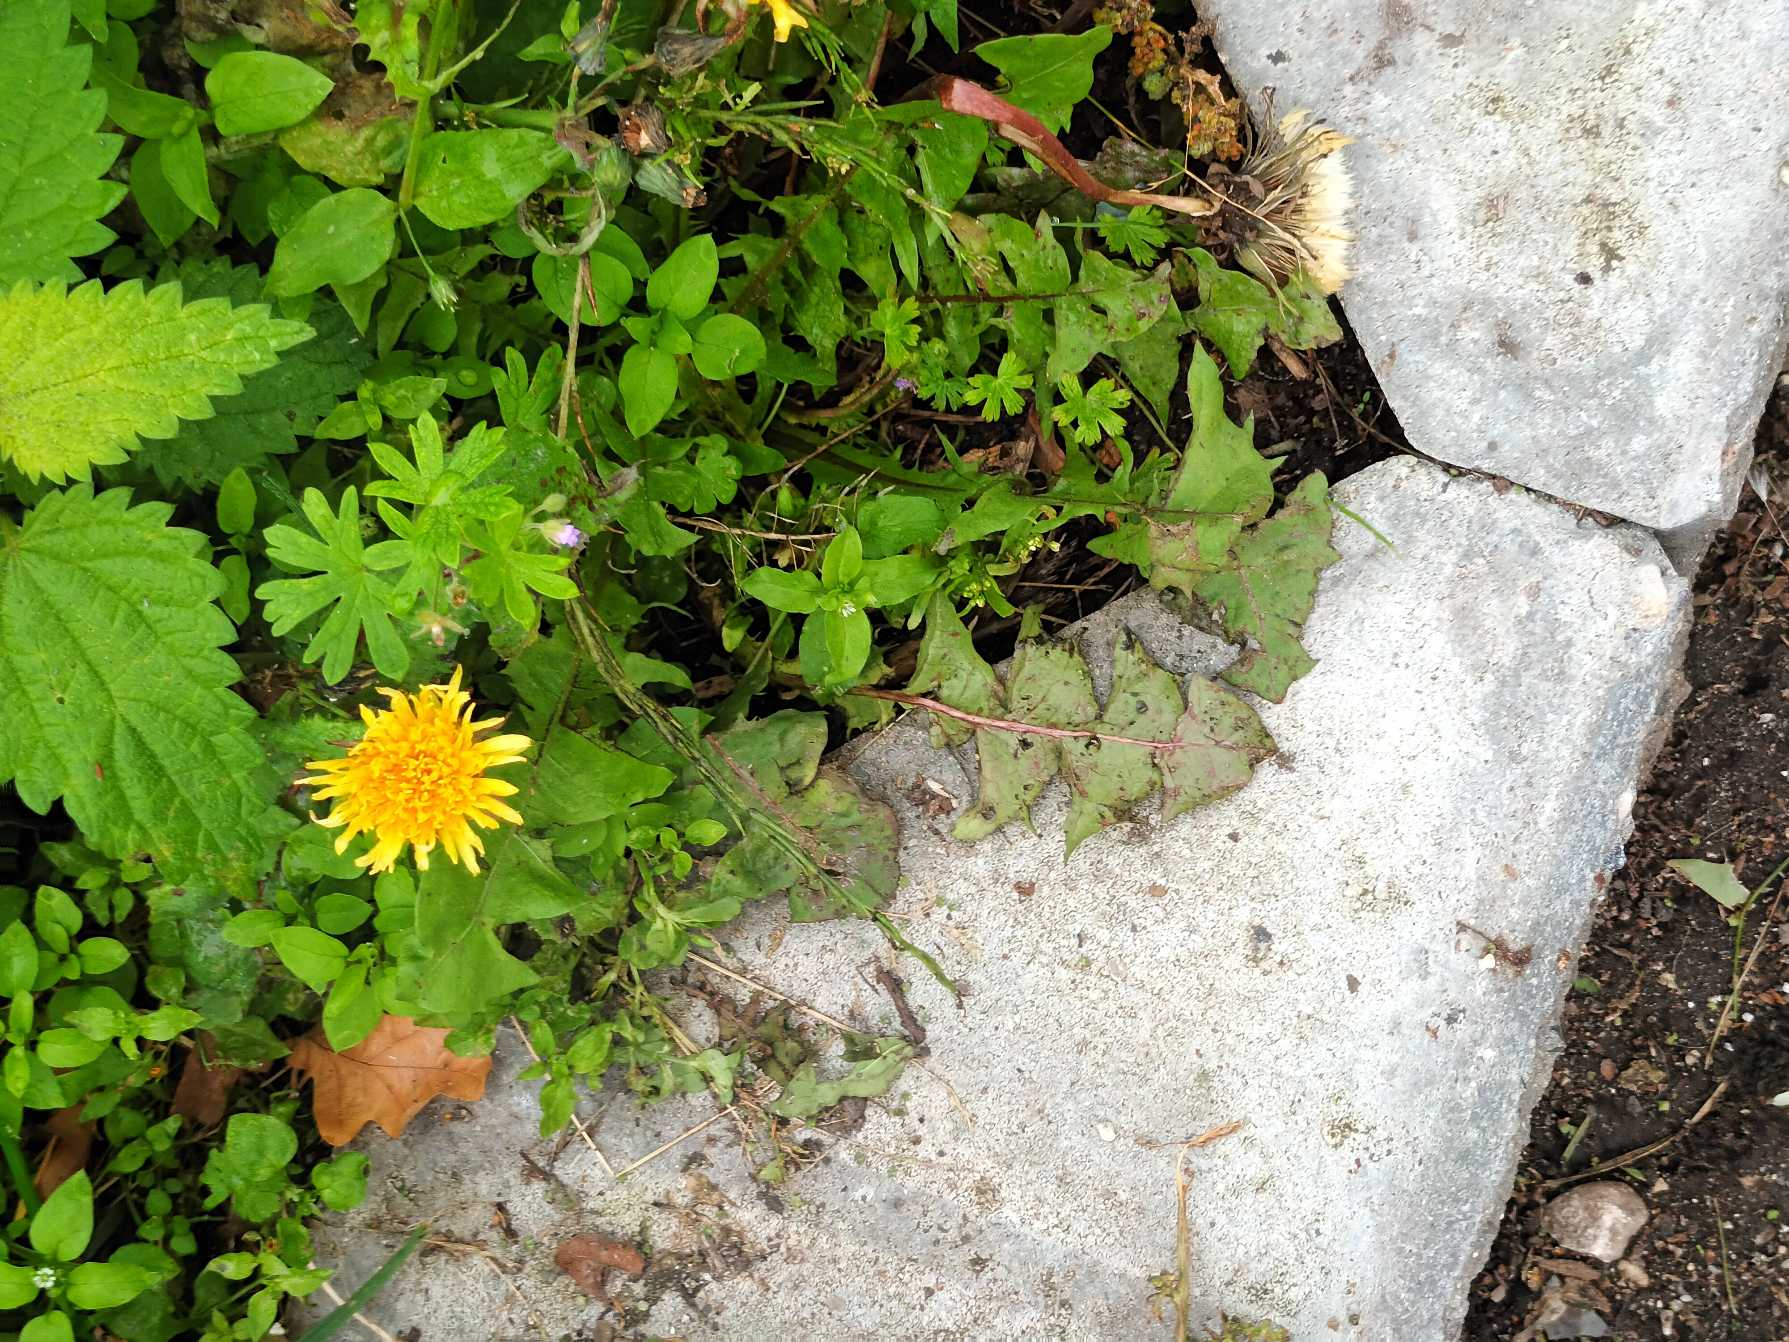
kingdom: Plantae
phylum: Tracheophyta
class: Magnoliopsida
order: Asterales
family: Asteraceae
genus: Taraxacum
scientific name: Taraxacum
